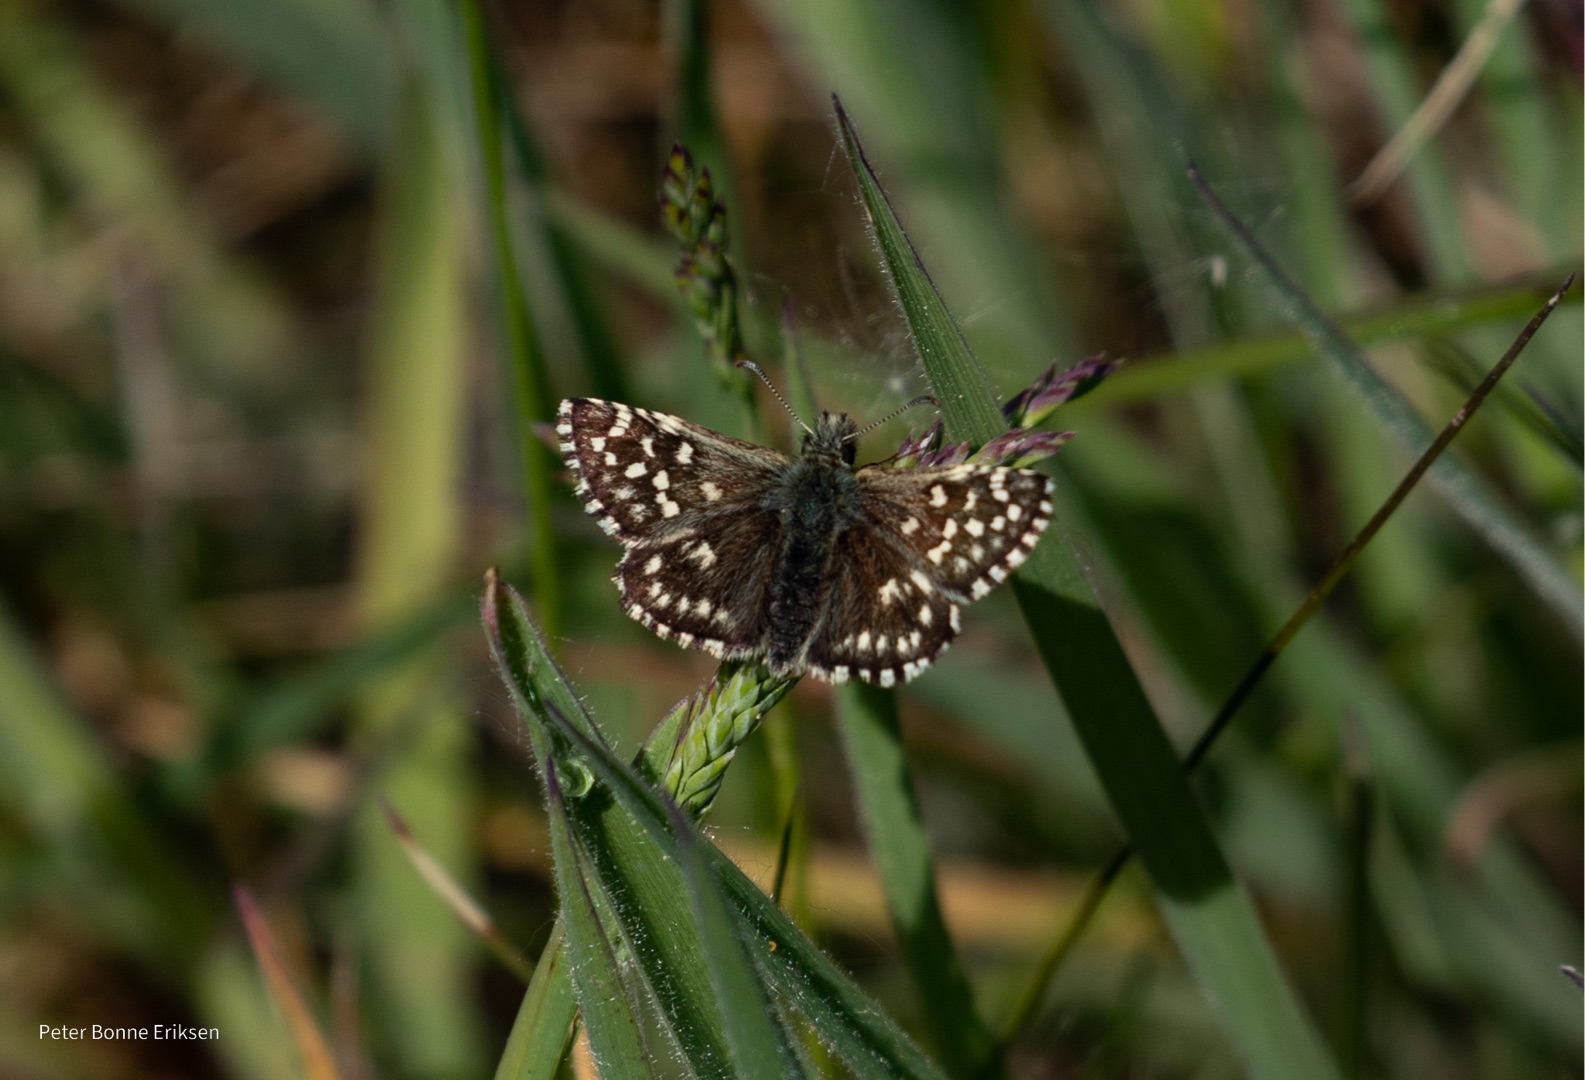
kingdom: Animalia
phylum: Arthropoda
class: Insecta
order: Lepidoptera
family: Hesperiidae
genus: Pyrgus
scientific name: Pyrgus malvae
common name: Spættet bredpande
